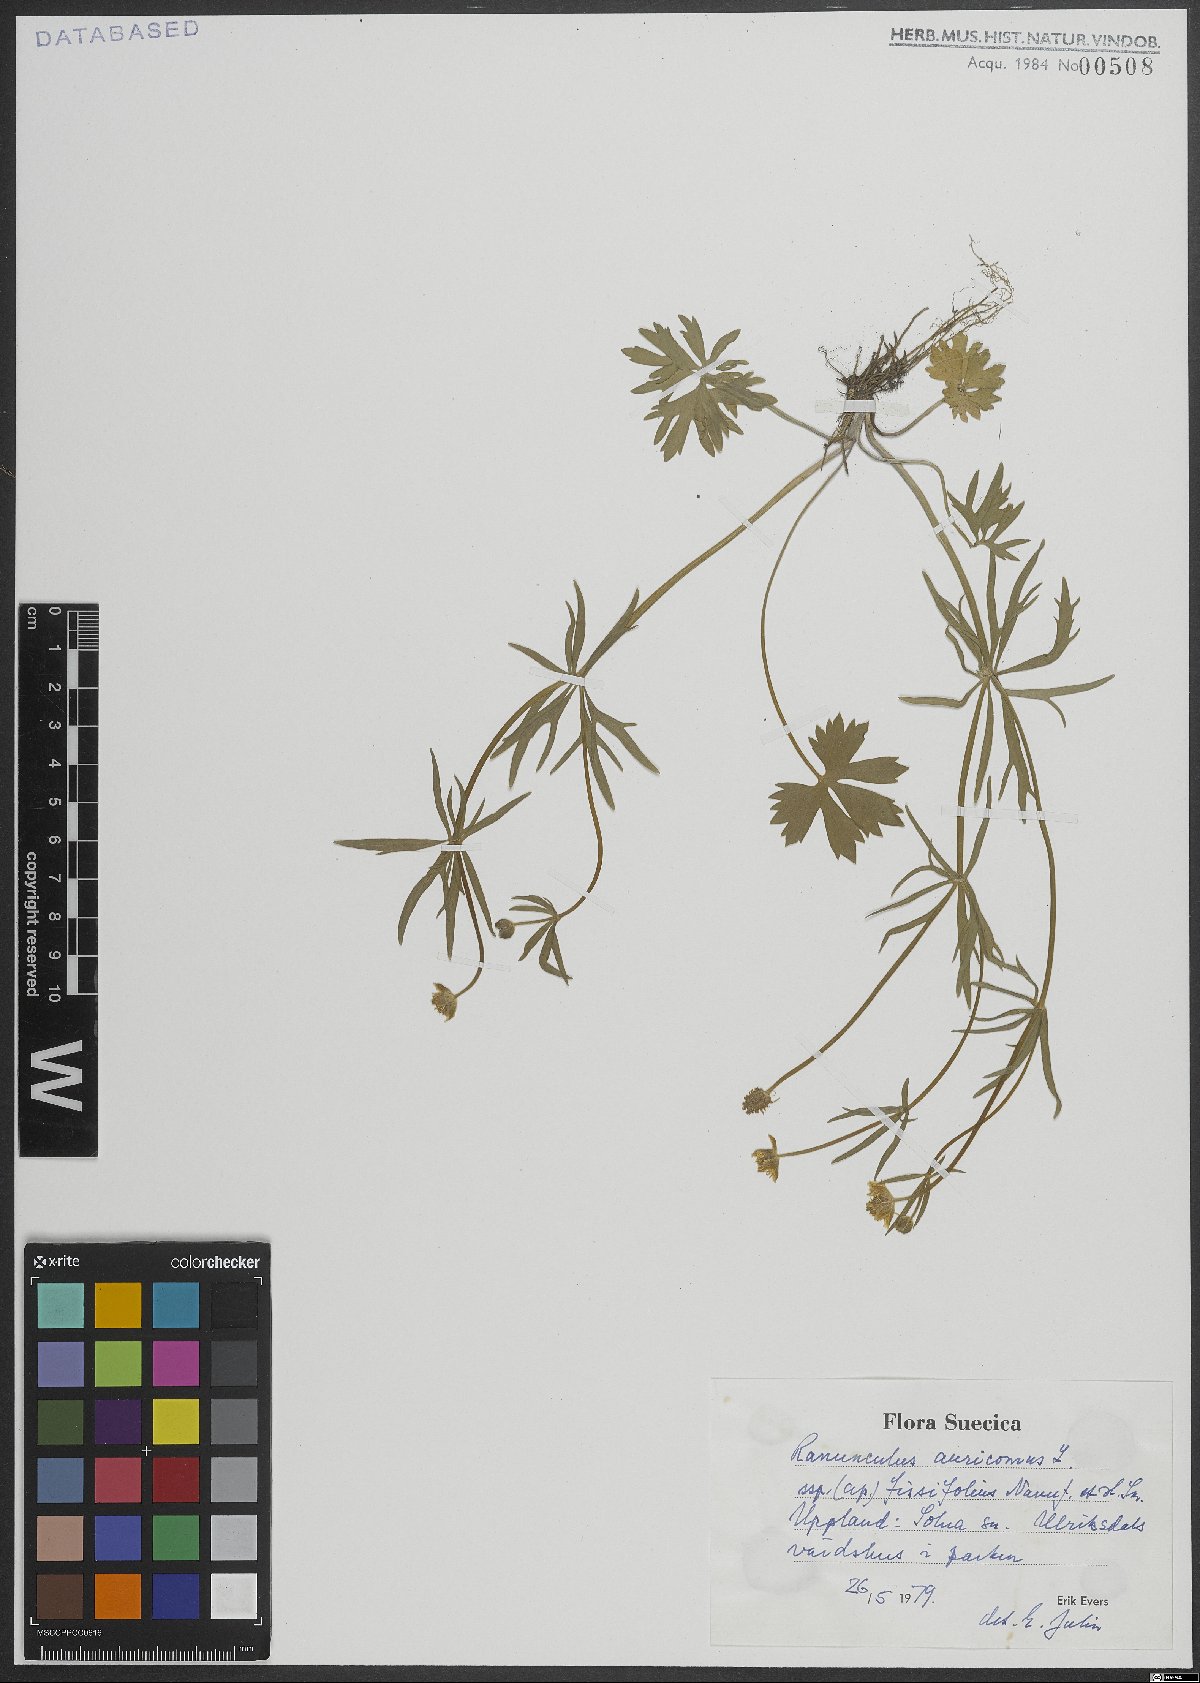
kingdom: Plantae
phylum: Tracheophyta
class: Magnoliopsida
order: Ranunculales
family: Ranunculaceae
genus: Ranunculus
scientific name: Ranunculus auricomus
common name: Goldilocks buttercup
